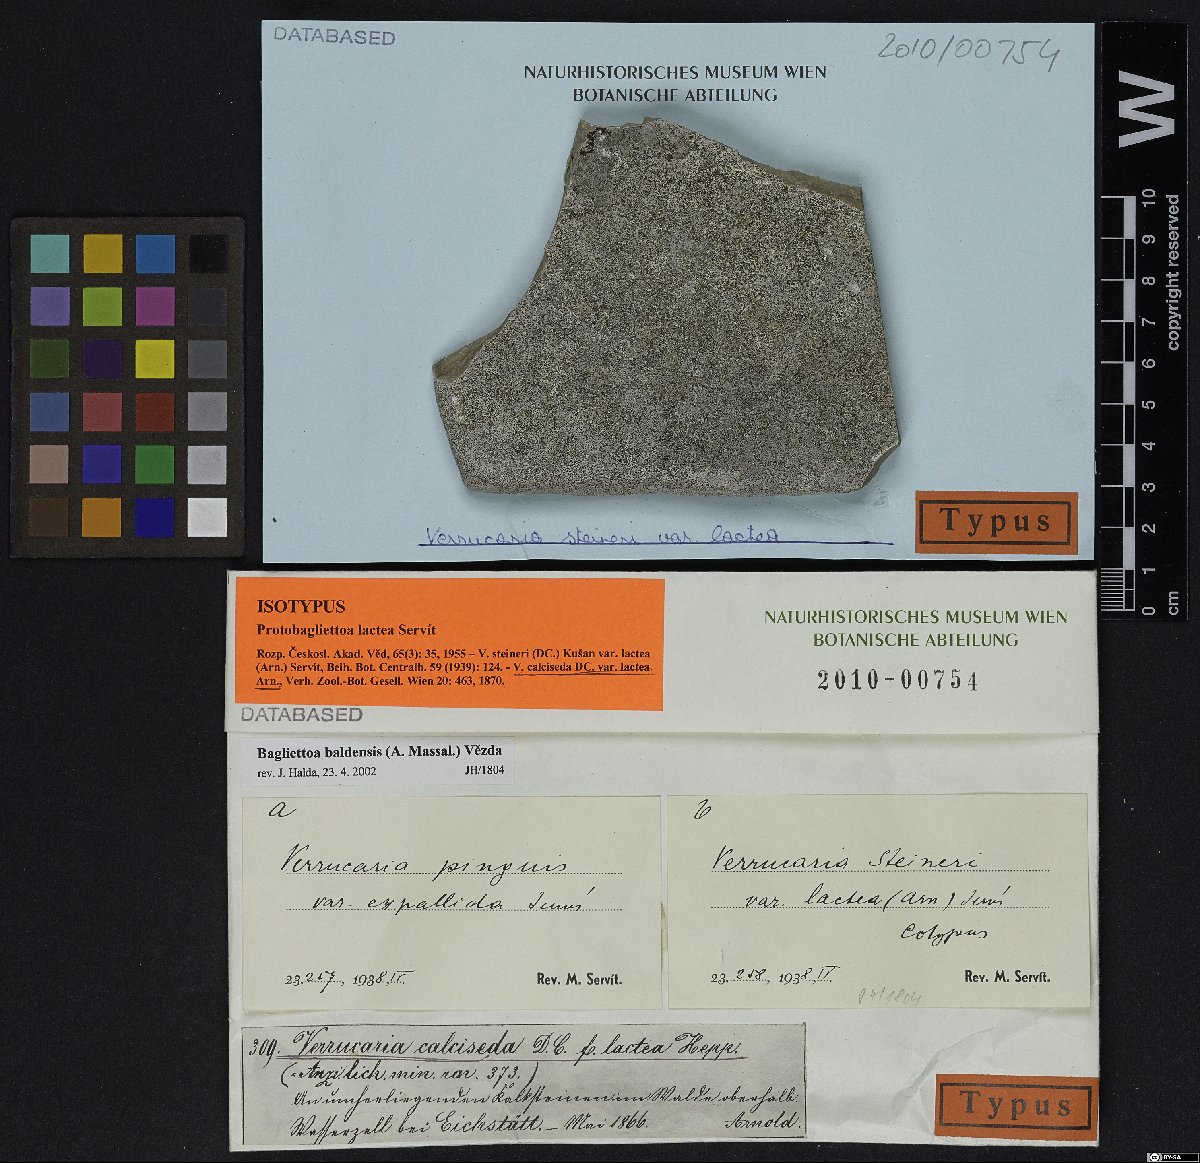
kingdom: Fungi
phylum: Ascomycota
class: Eurotiomycetes
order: Verrucariales
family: Verrucariaceae
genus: Bagliettoa
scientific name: Bagliettoa steineri
